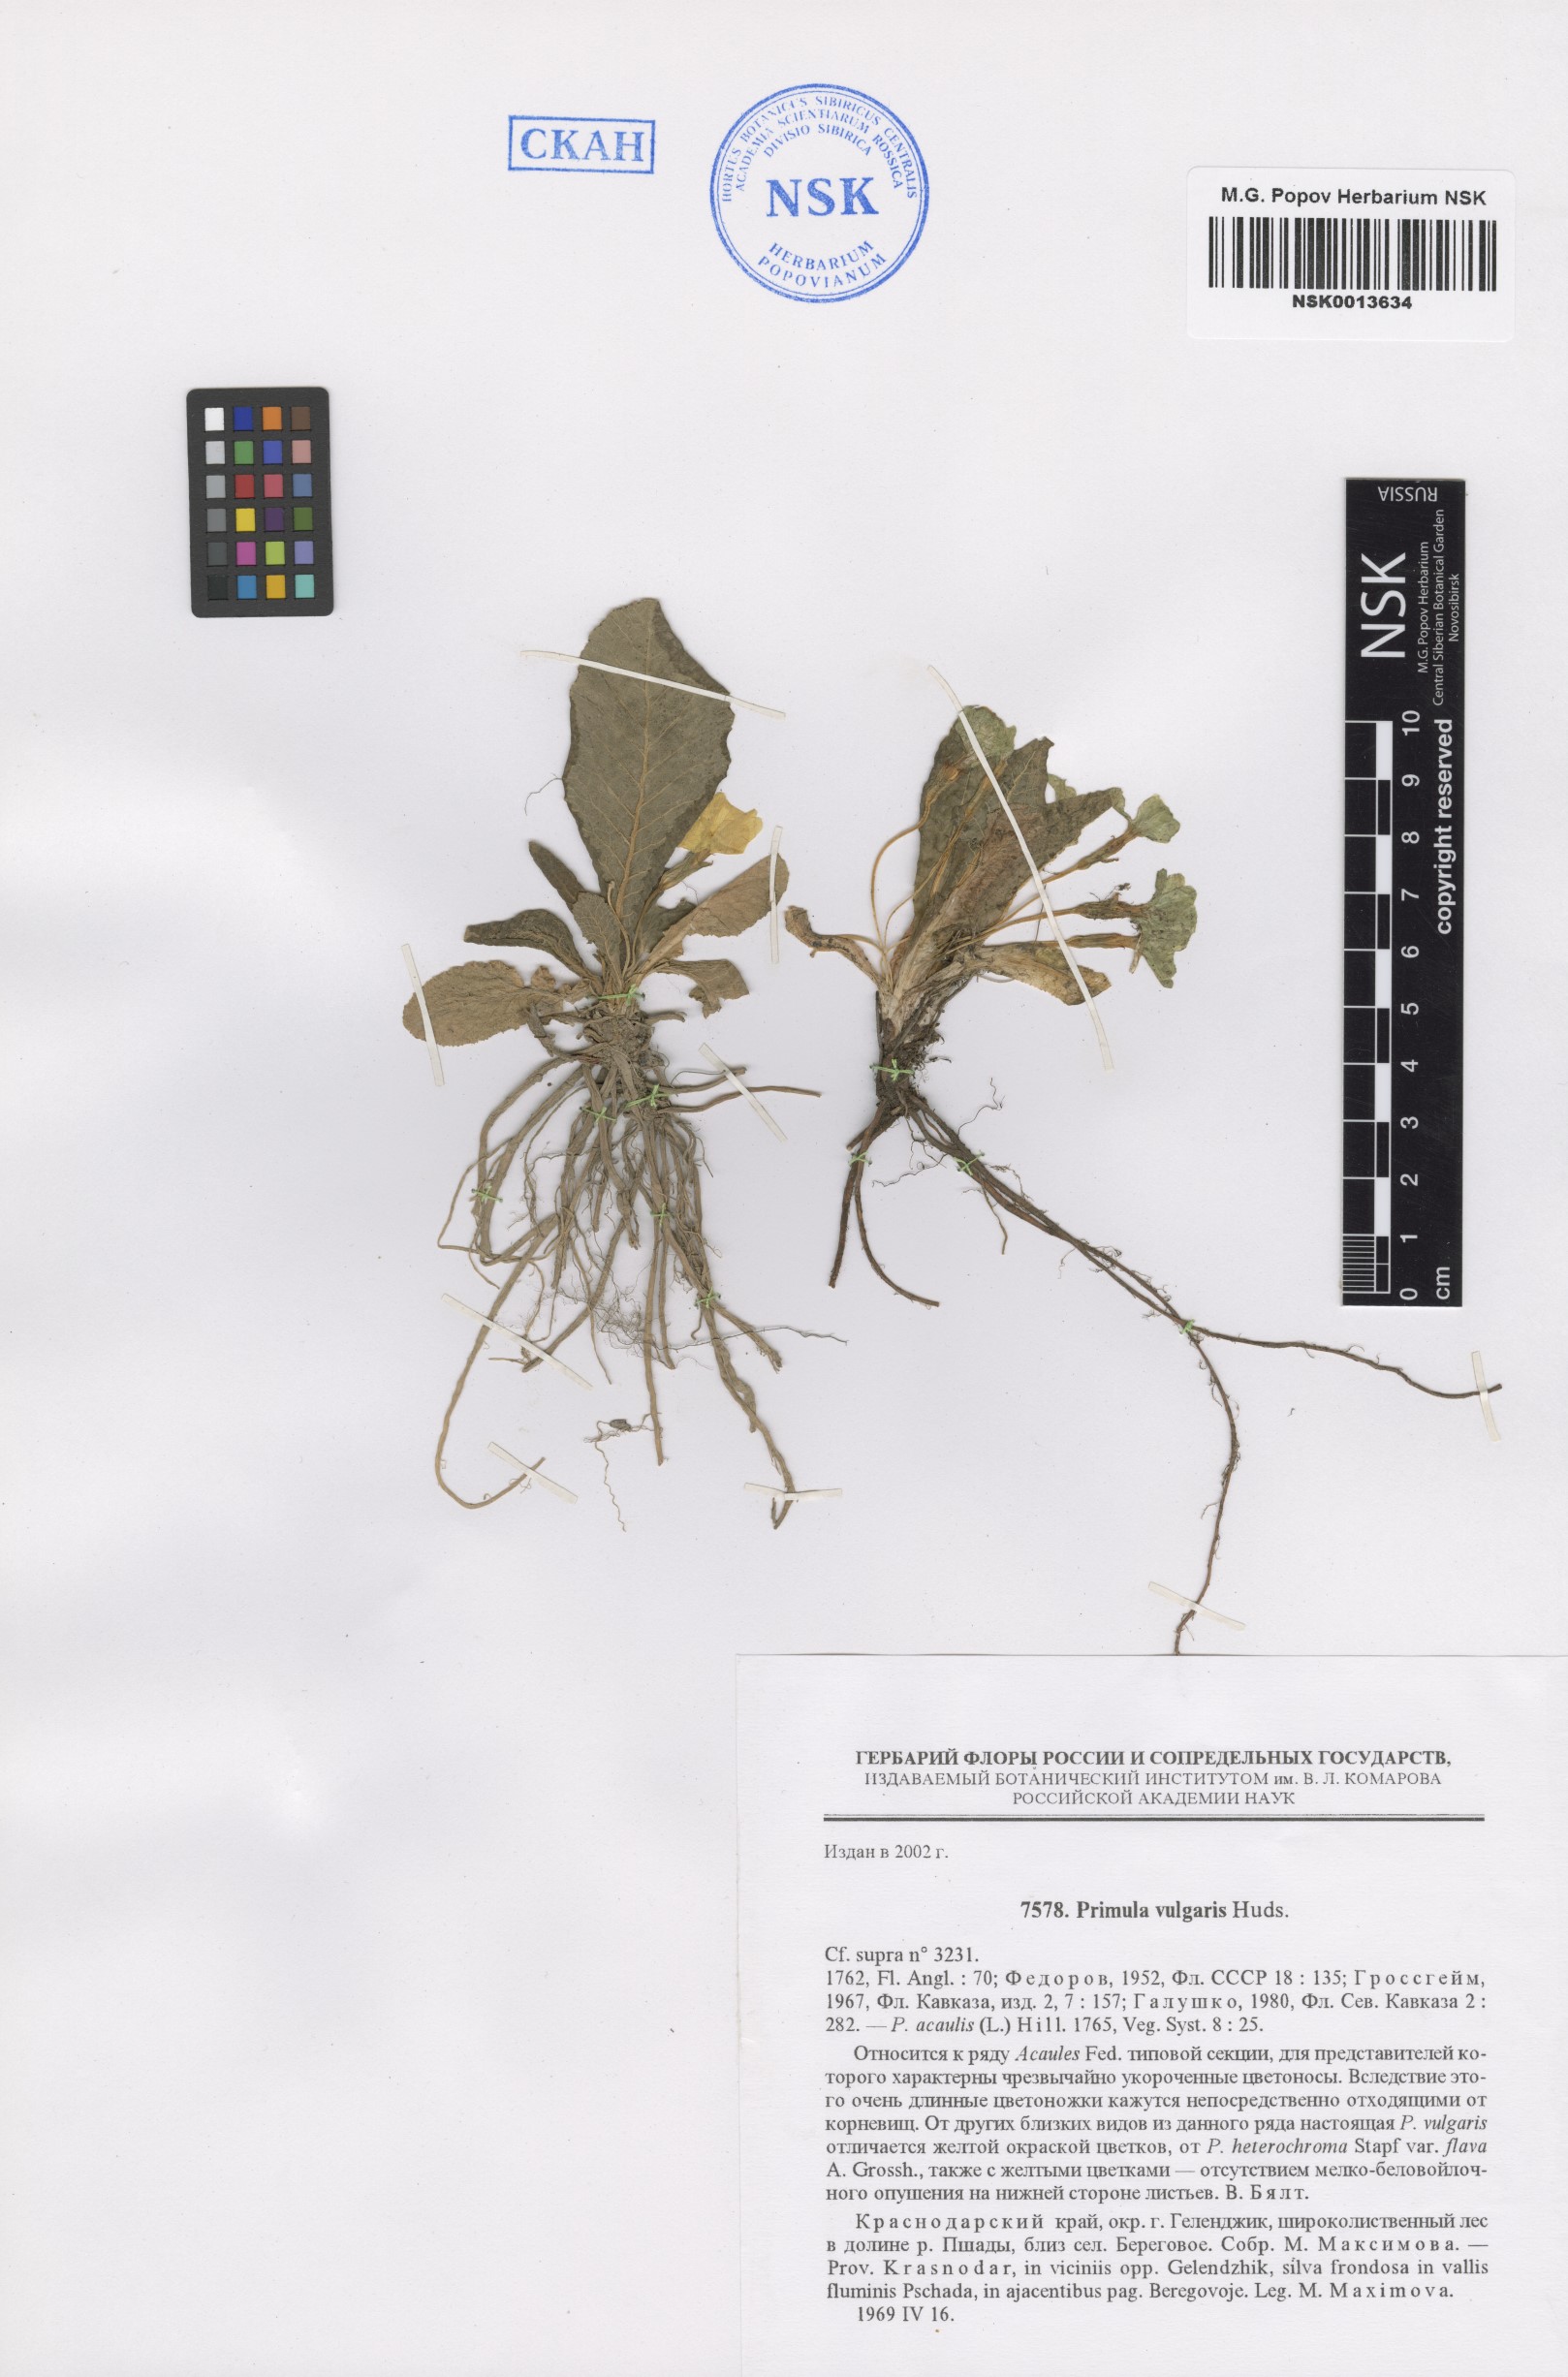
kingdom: Plantae
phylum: Tracheophyta
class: Magnoliopsida
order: Ericales
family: Primulaceae
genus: Primula
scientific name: Primula vulgaris
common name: Primrose
